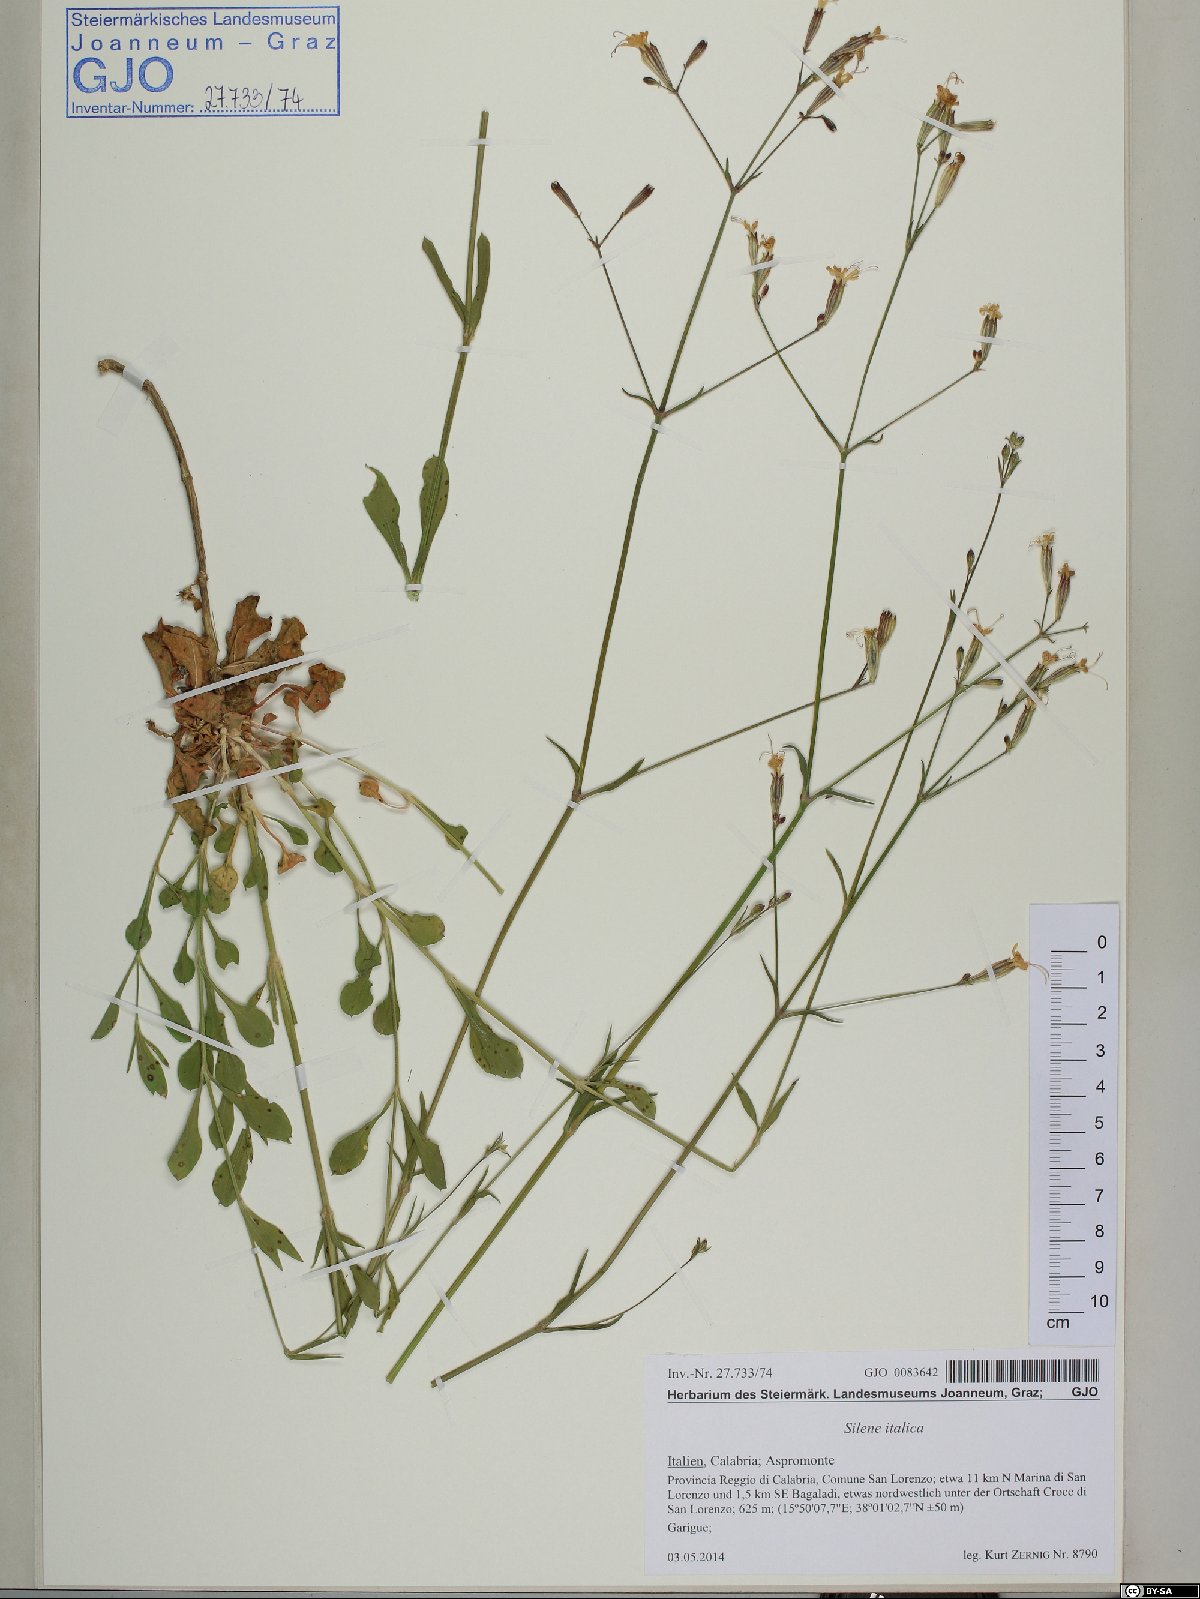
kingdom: Plantae
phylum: Tracheophyta
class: Magnoliopsida
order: Caryophyllales
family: Caryophyllaceae
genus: Silene
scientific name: Silene italica
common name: Italian catchfly
